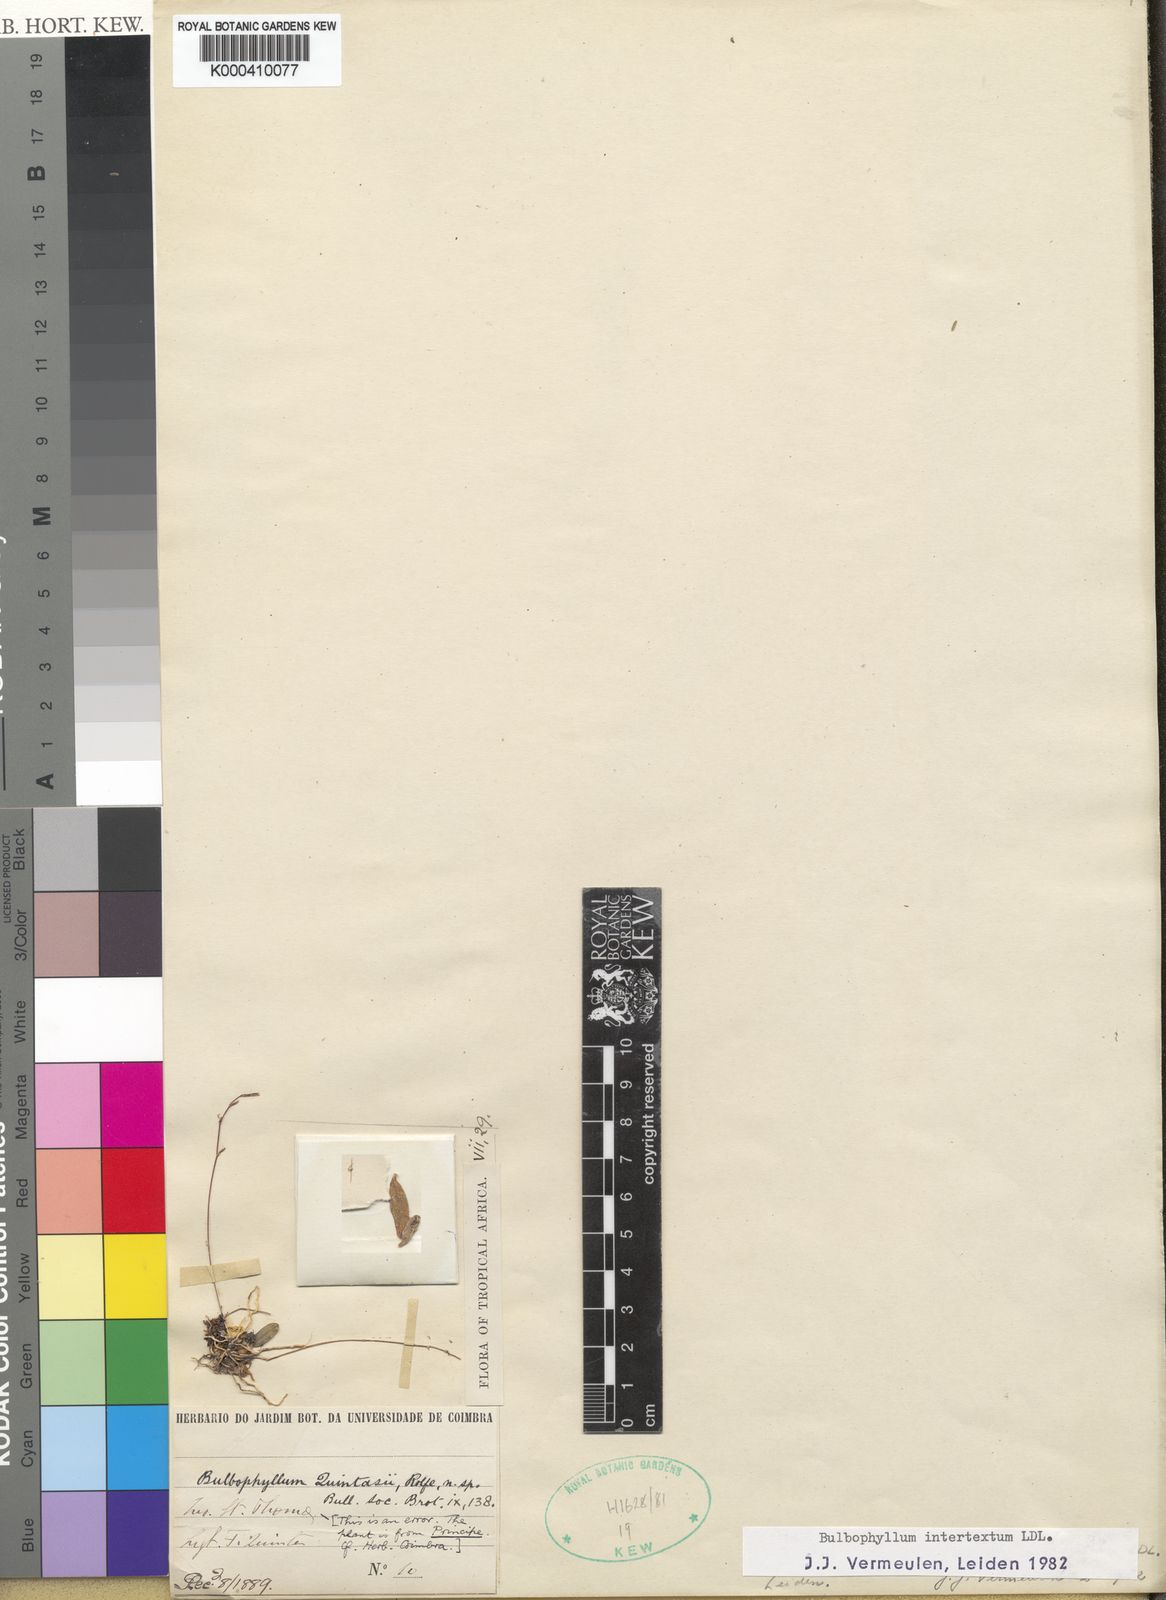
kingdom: Plantae
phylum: Tracheophyta
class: Liliopsida
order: Asparagales
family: Orchidaceae
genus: Bulbophyllum
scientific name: Bulbophyllum intertextum
